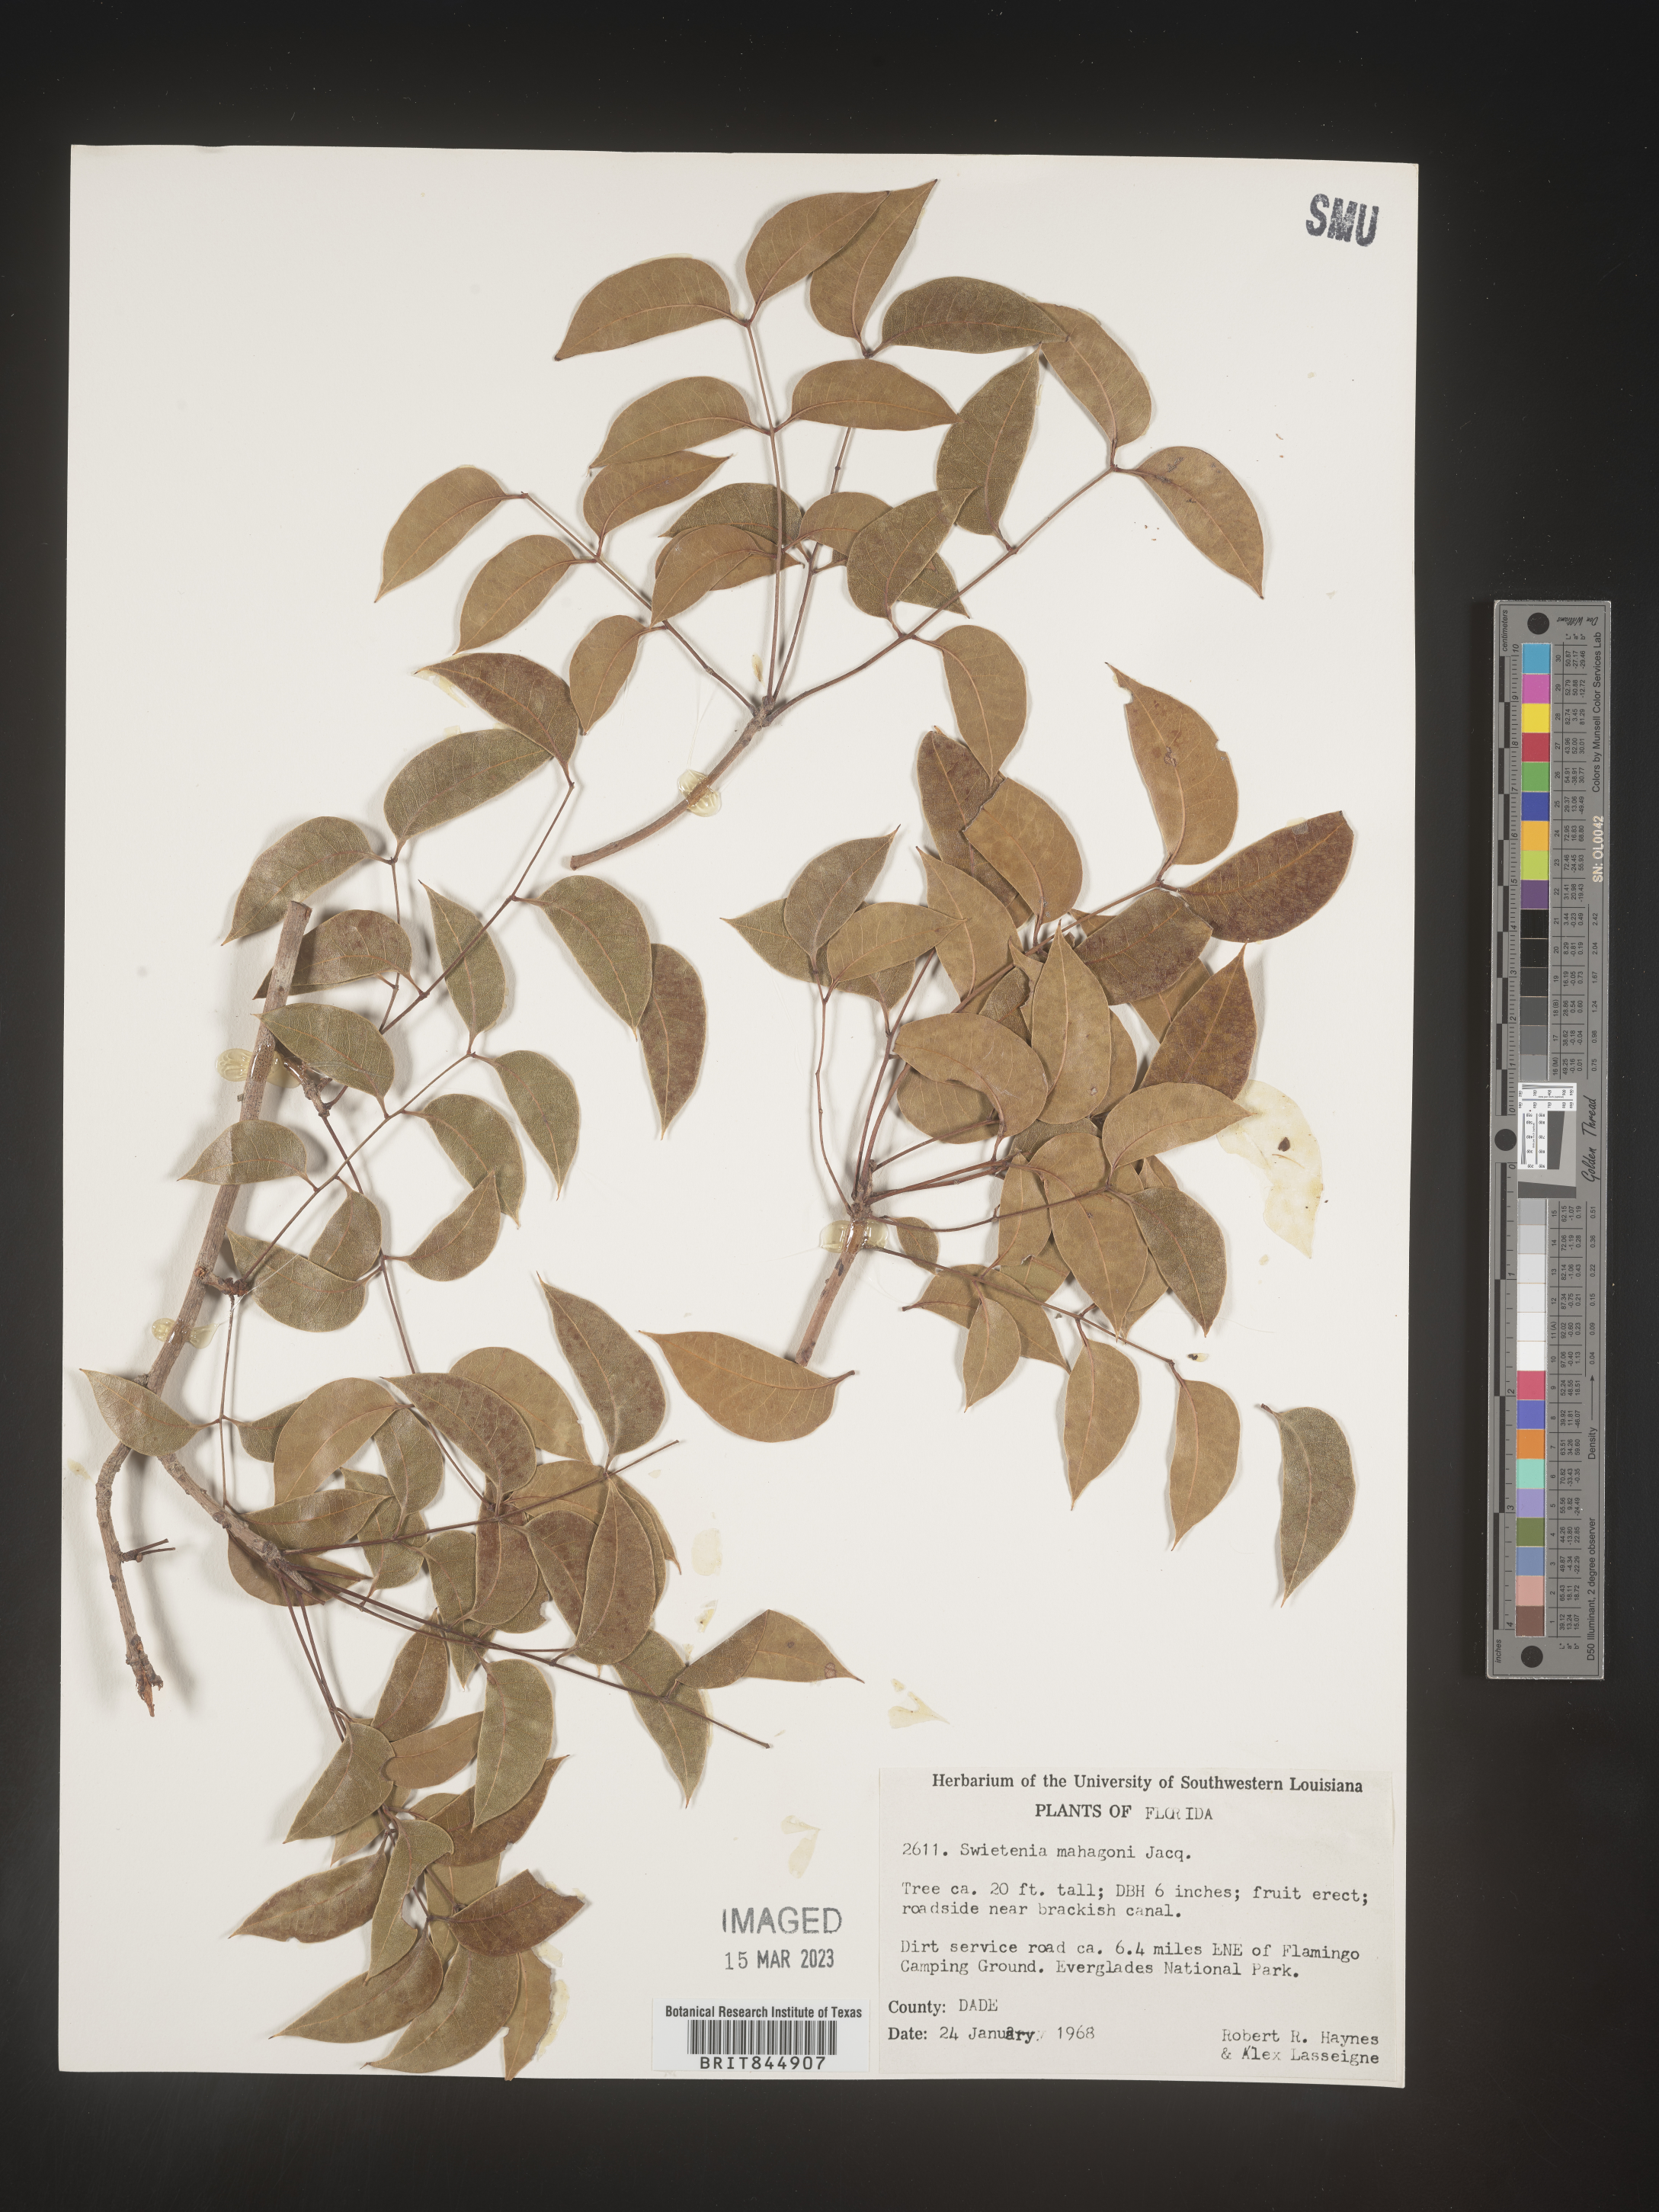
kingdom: Plantae
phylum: Tracheophyta
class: Magnoliopsida
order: Sapindales
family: Meliaceae
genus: Swietenia
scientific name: Swietenia
